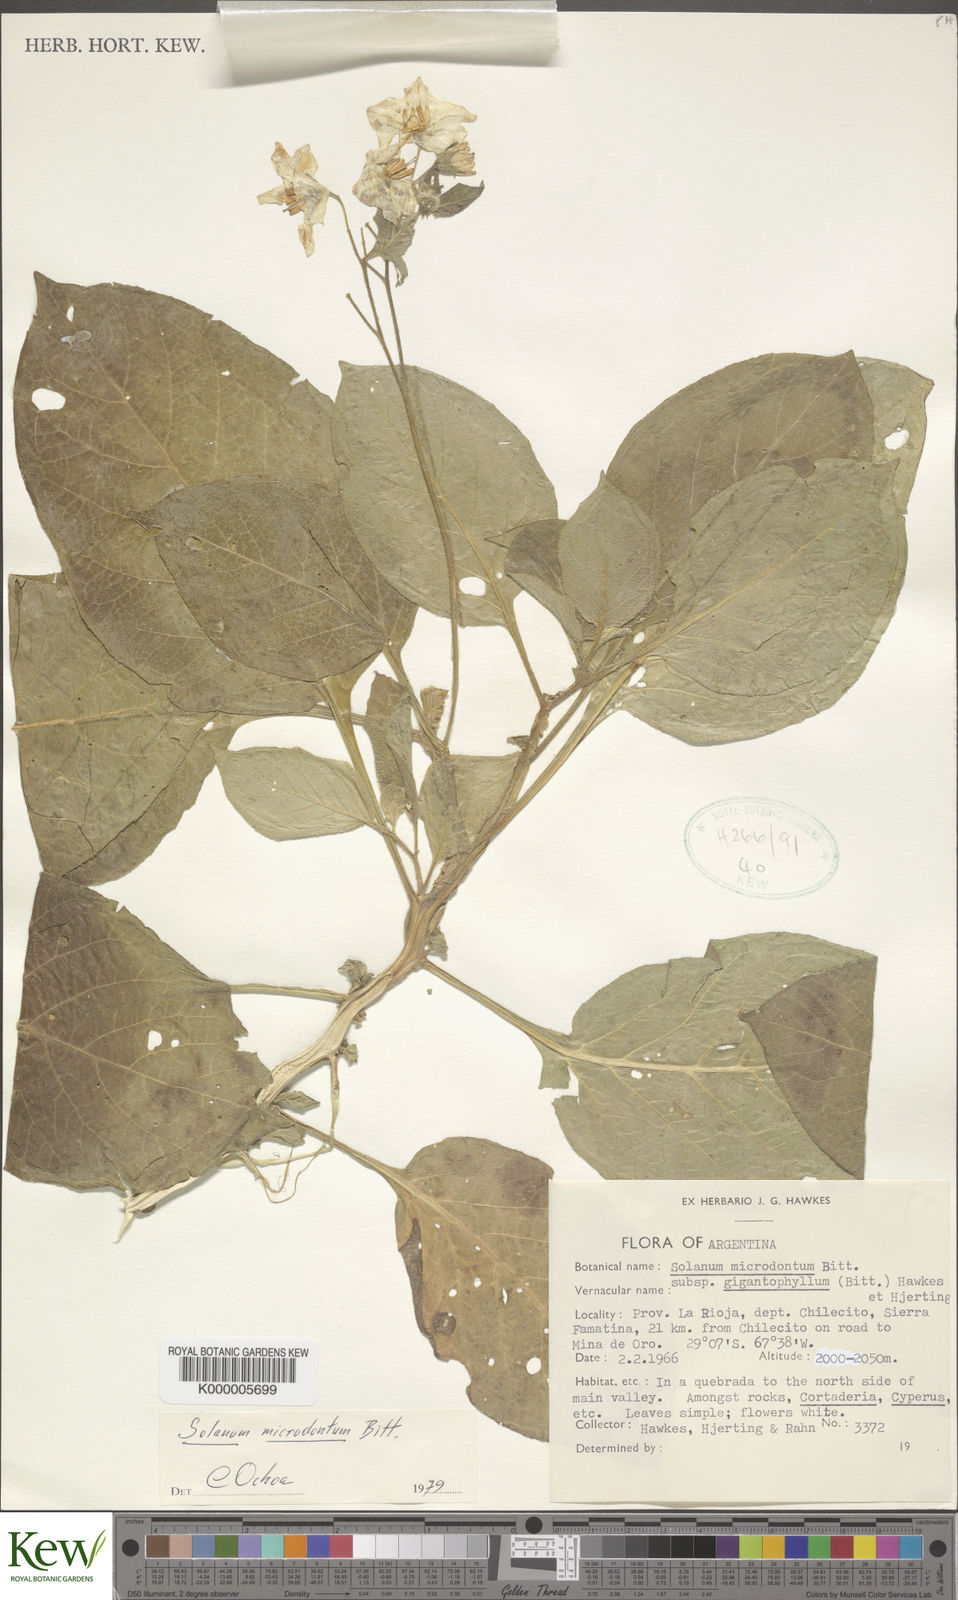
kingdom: Plantae
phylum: Tracheophyta
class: Magnoliopsida
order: Solanales
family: Solanaceae
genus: Solanum
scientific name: Solanum microdontum
